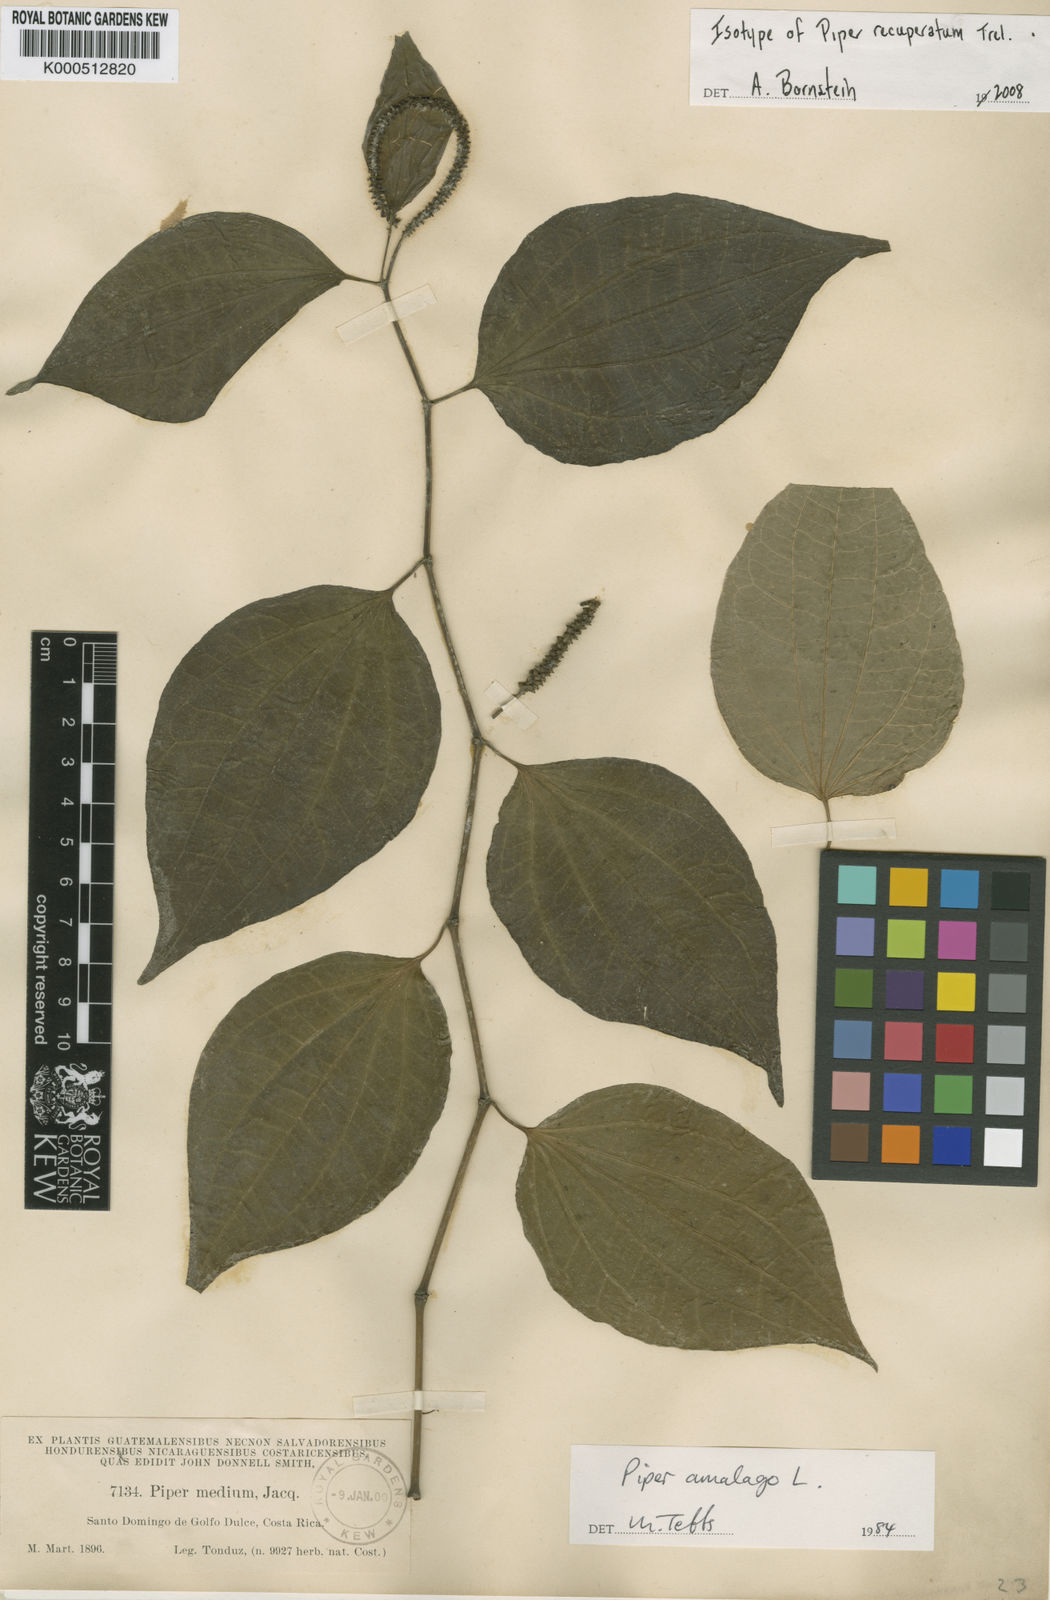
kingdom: Plantae
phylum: Tracheophyta
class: Magnoliopsida
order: Piperales
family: Piperaceae
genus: Piper
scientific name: Piper amalago
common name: Pepper-elder
